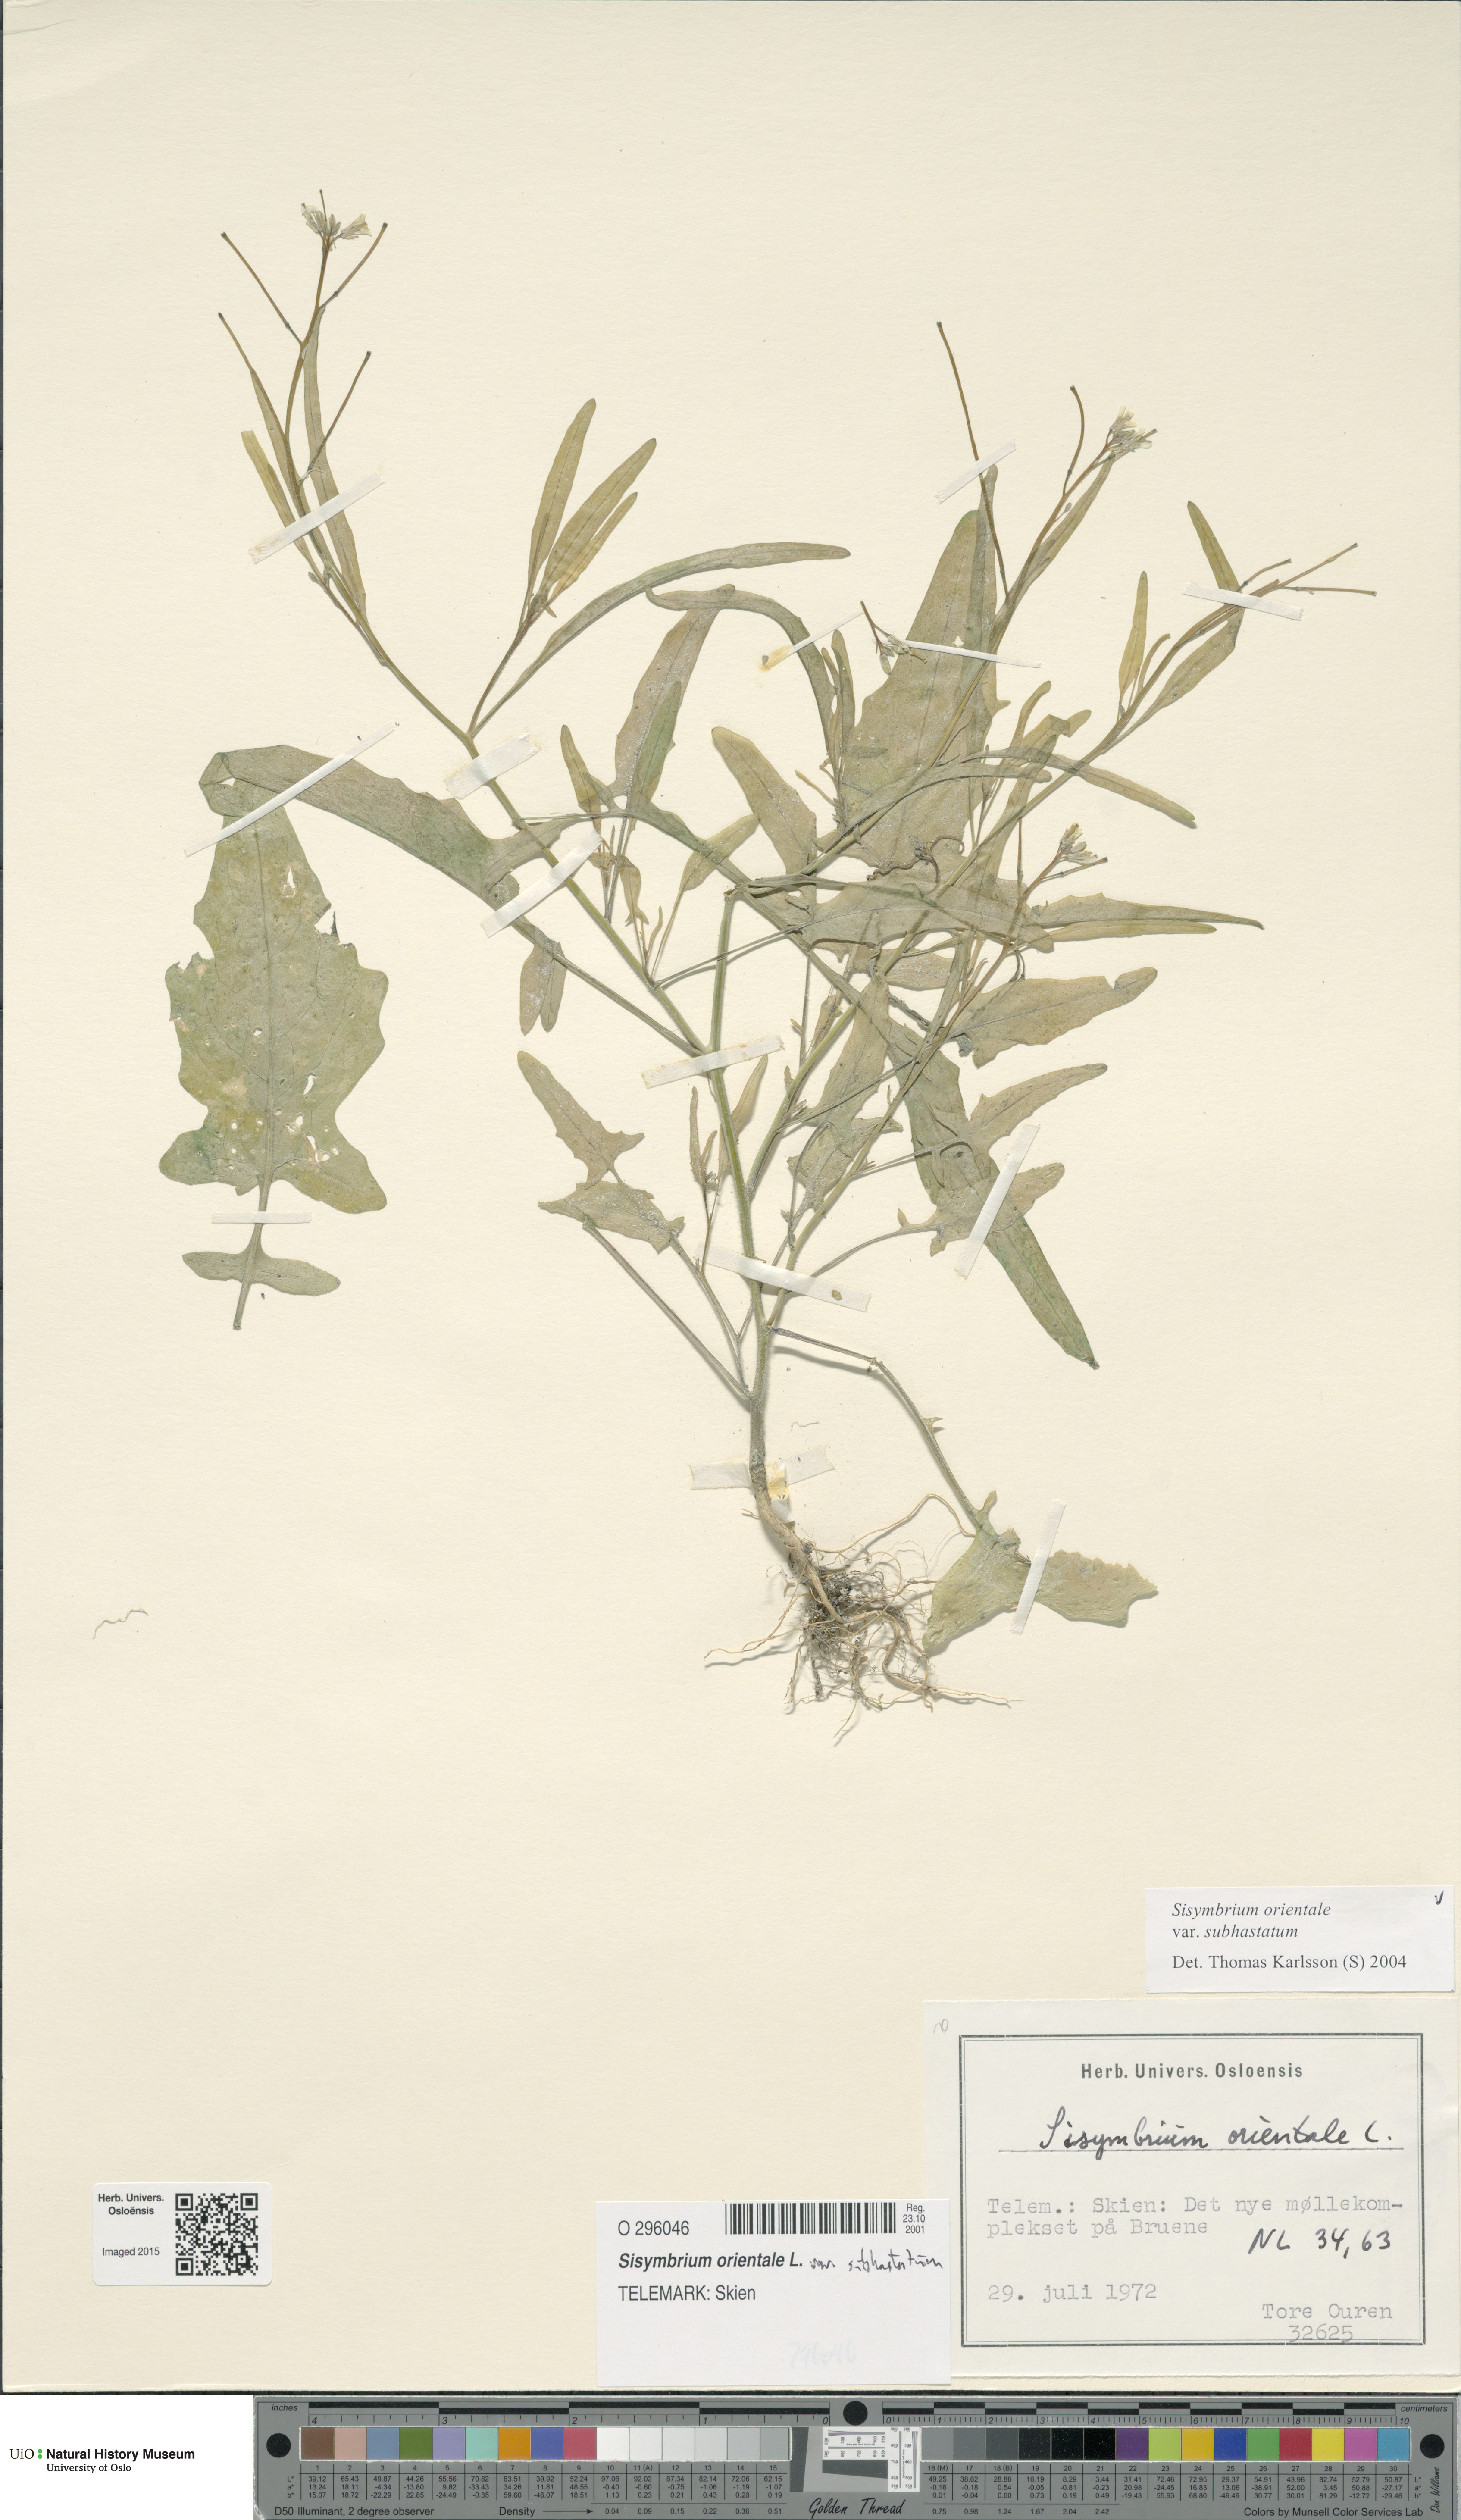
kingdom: Plantae
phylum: Tracheophyta
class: Magnoliopsida
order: Brassicales
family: Brassicaceae
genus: Sisymbrium
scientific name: Sisymbrium orientale
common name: Eastern rocket
